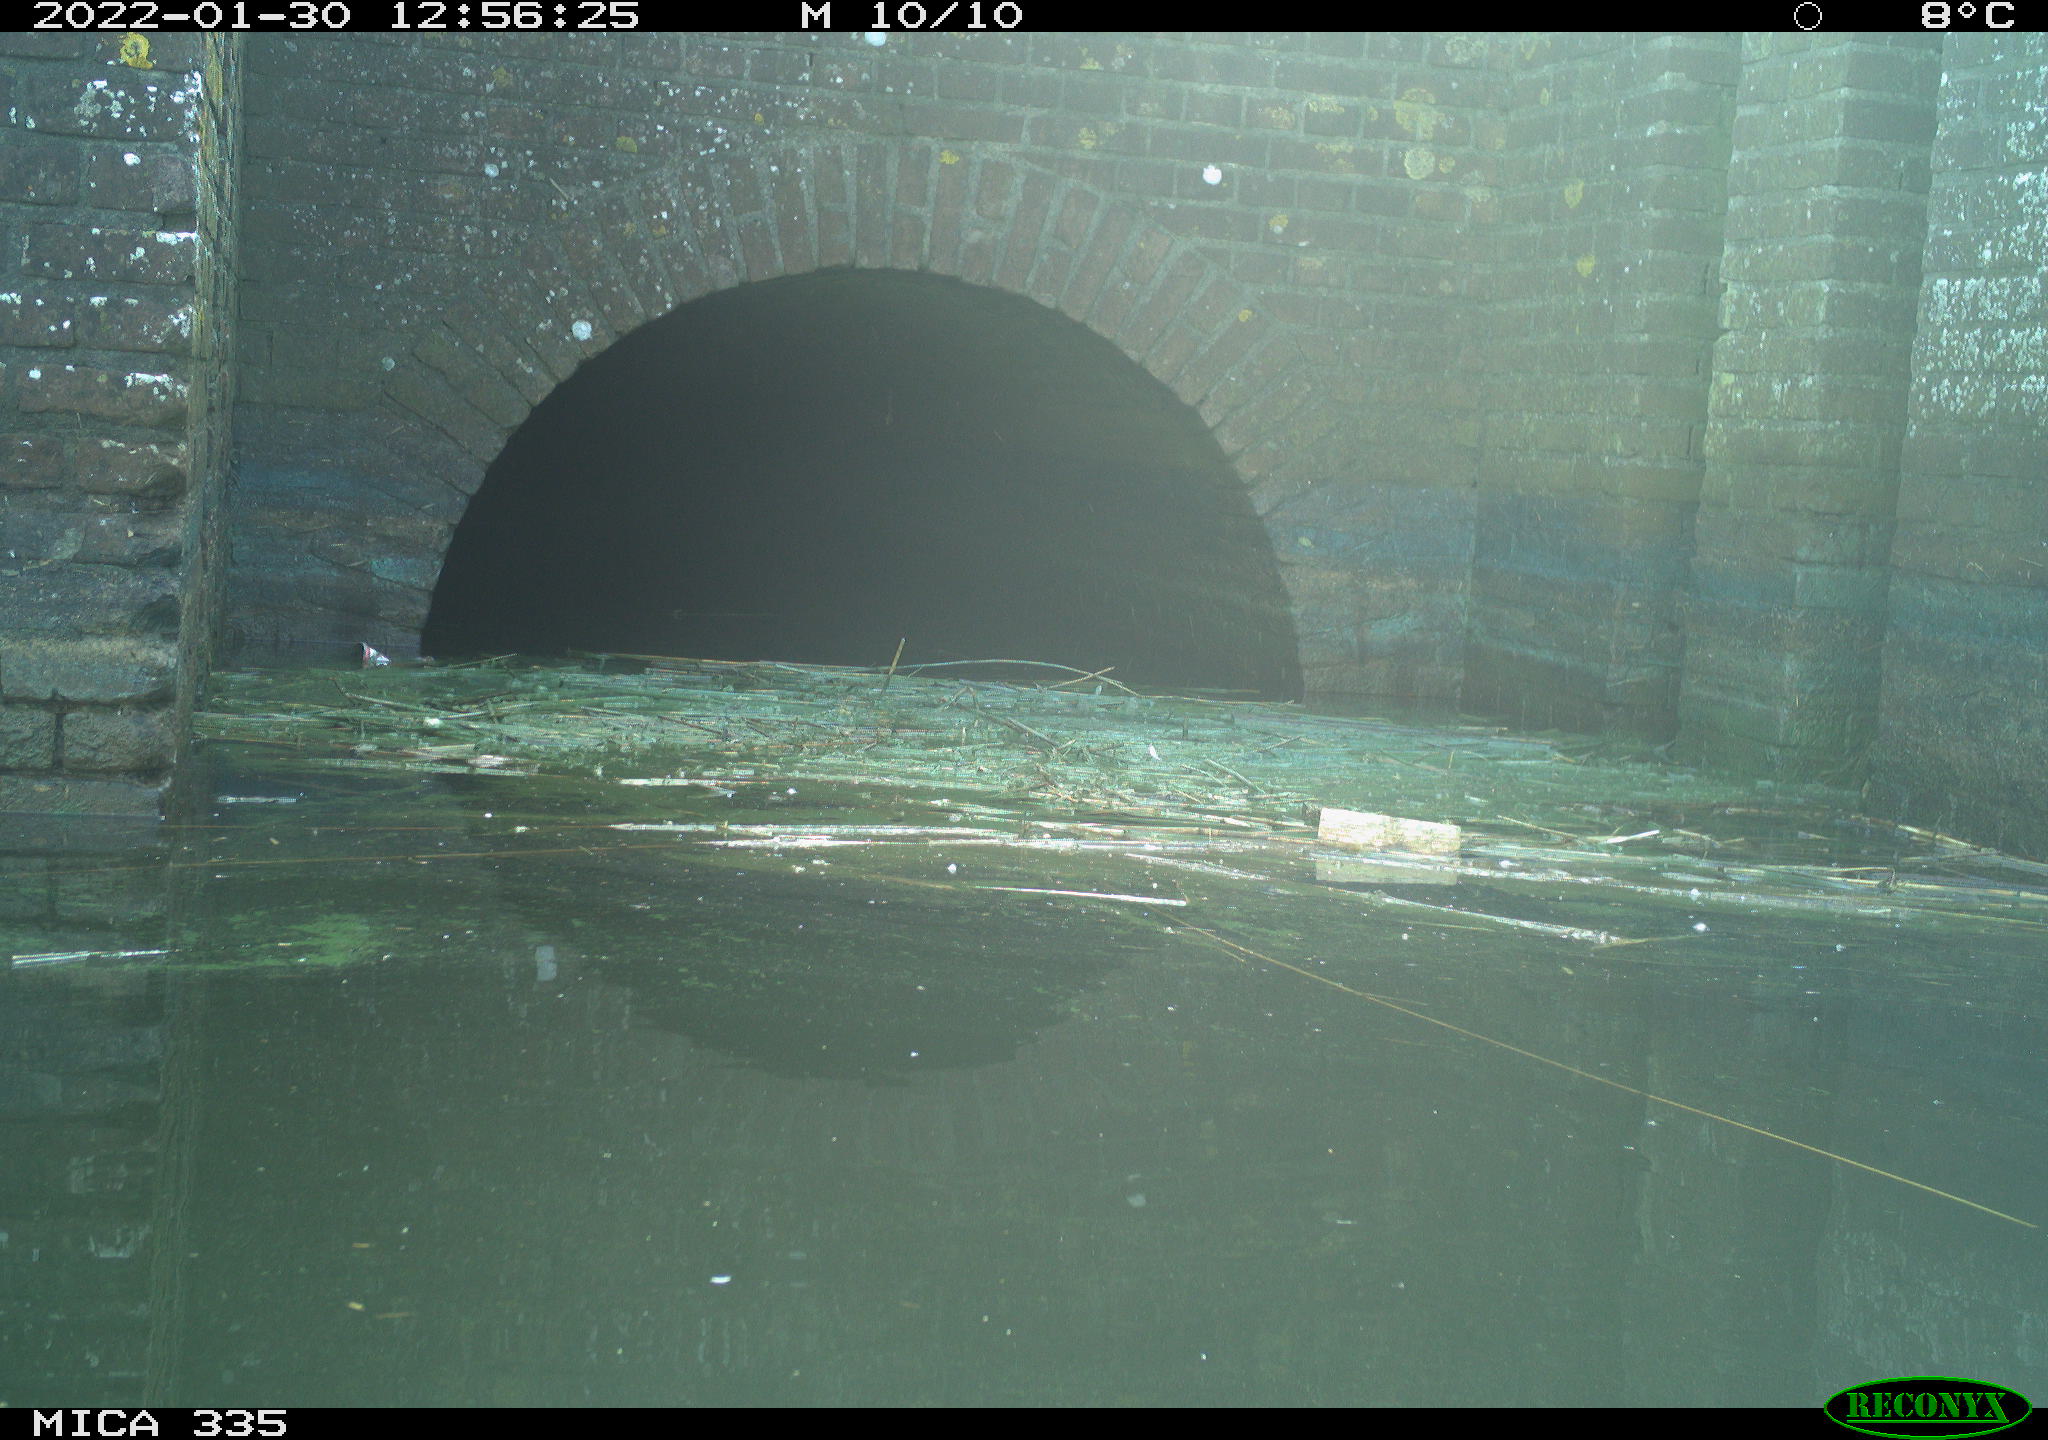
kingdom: Animalia
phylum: Chordata
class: Aves
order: Gruiformes
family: Rallidae
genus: Gallinula
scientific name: Gallinula chloropus
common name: Common moorhen
